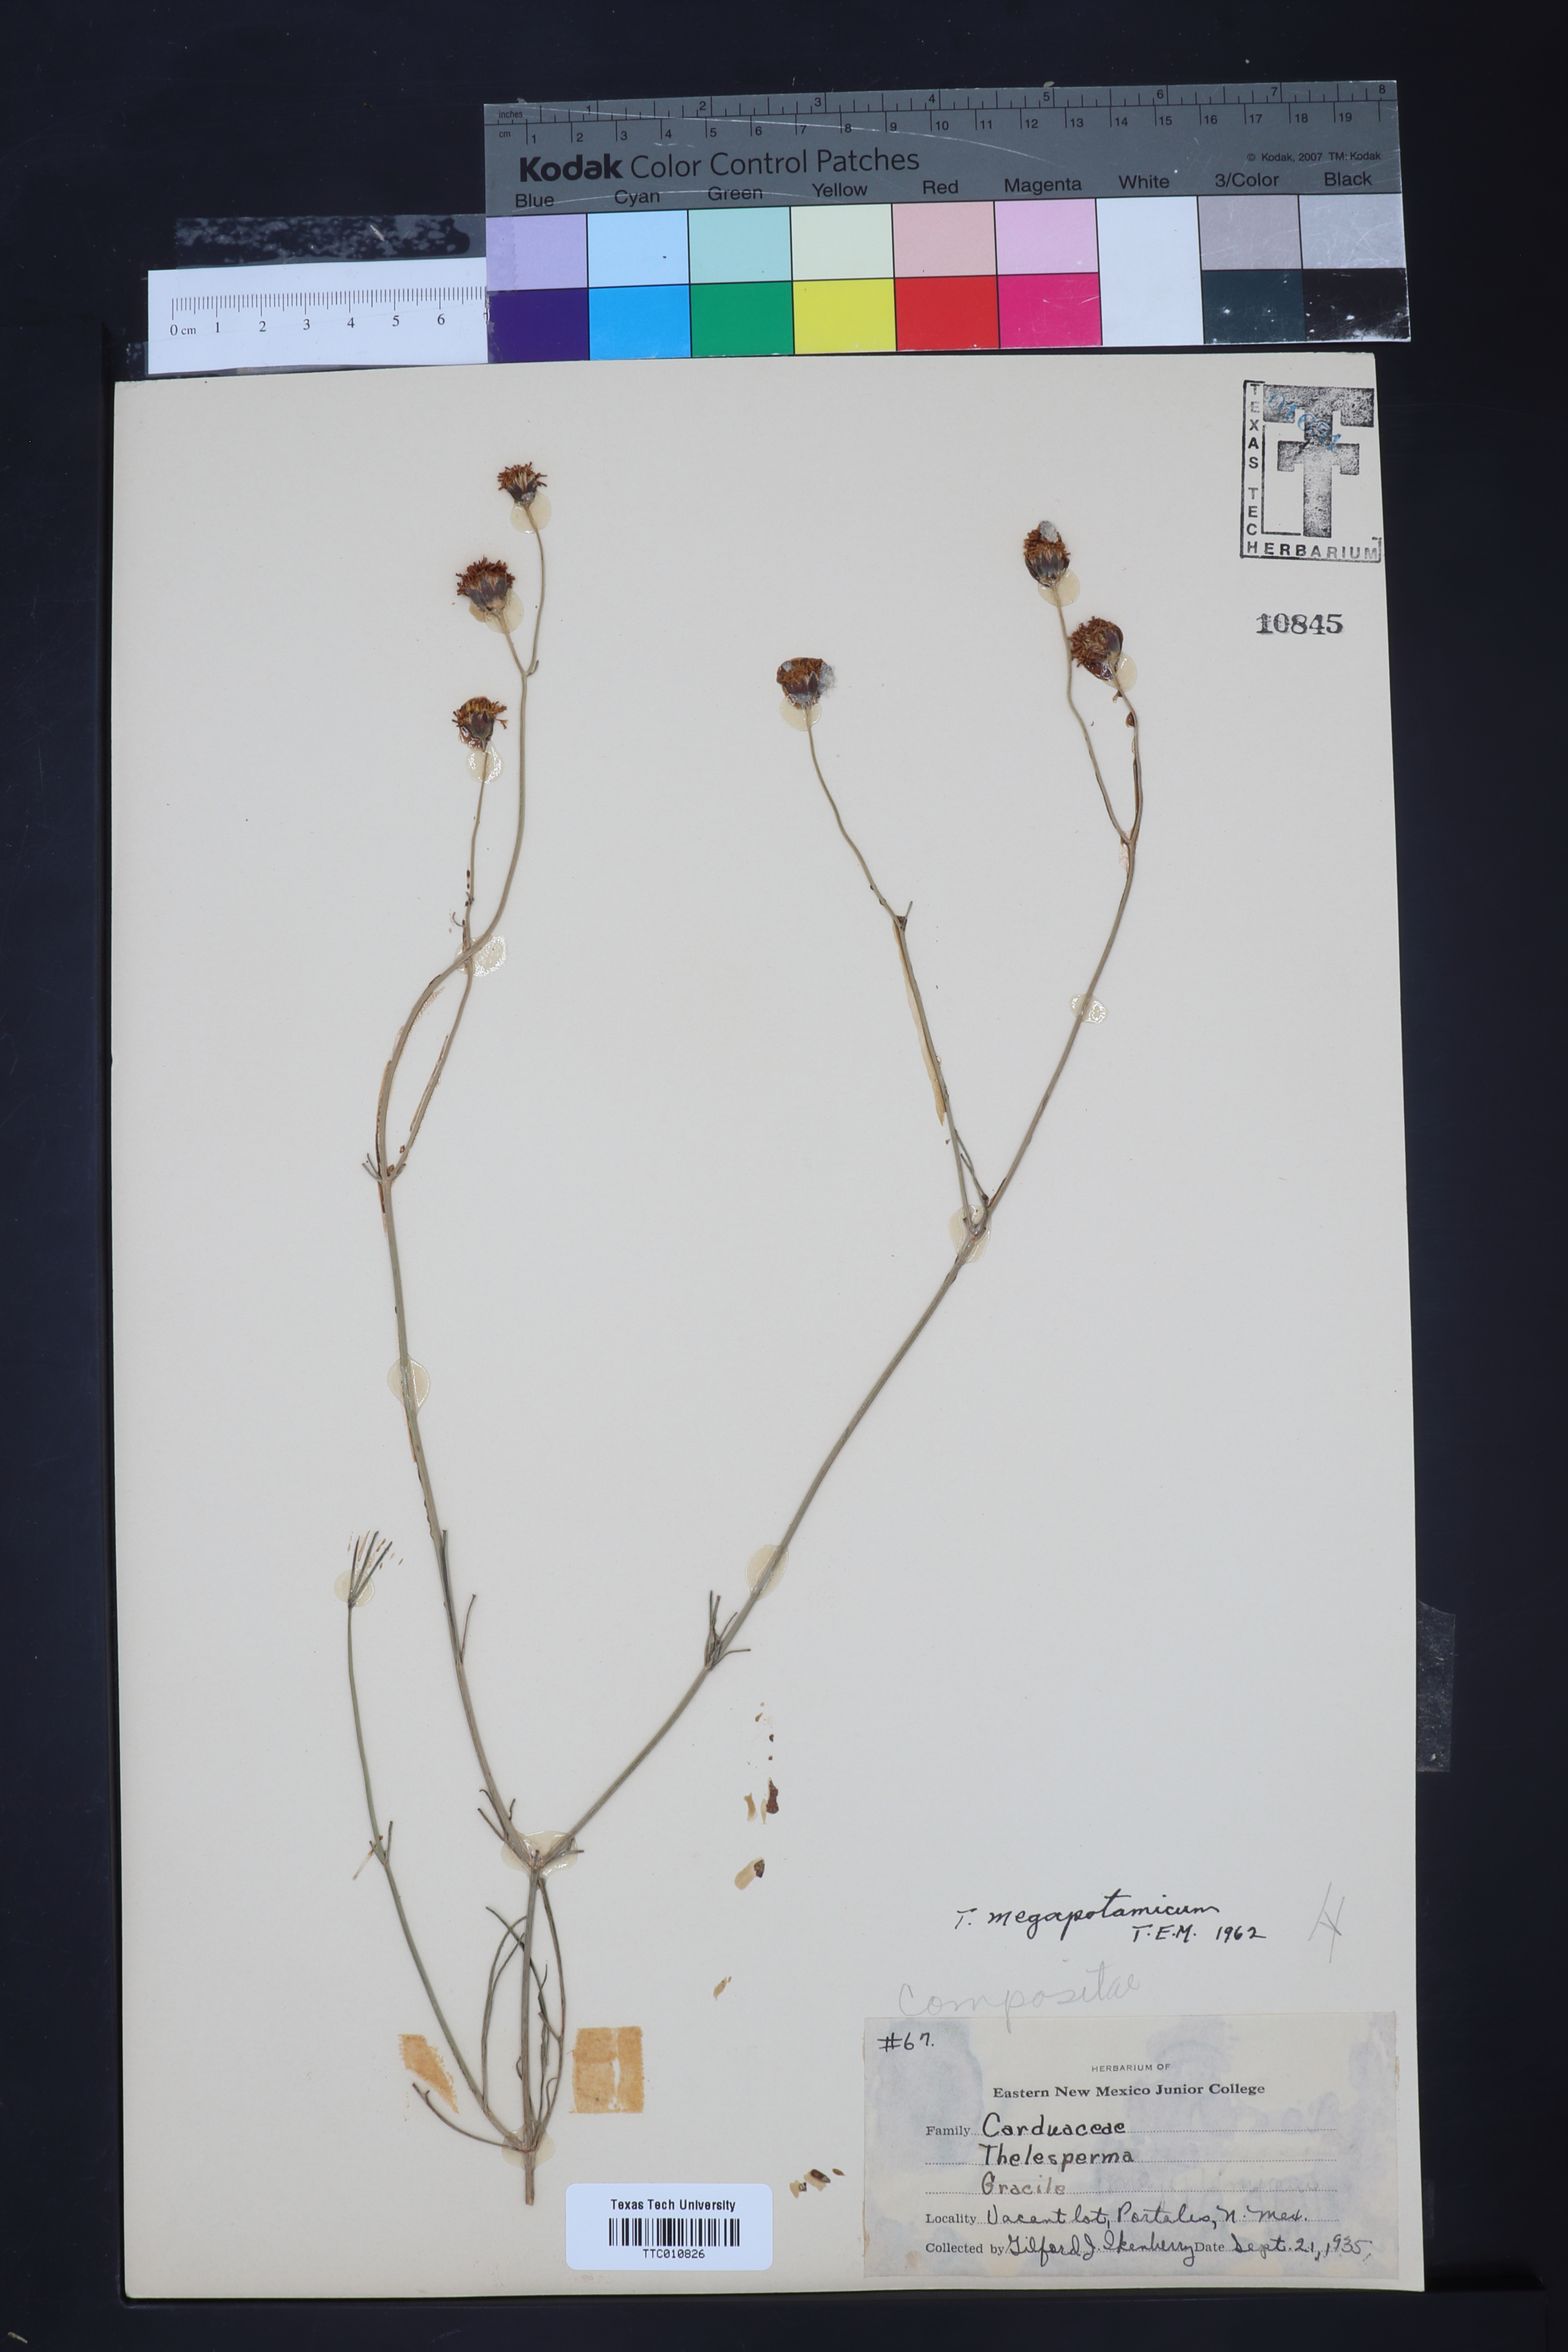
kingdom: Plantae
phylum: Tracheophyta
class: Magnoliopsida
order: Asterales
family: Asteraceae
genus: Thelesperma
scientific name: Thelesperma megapotamicum
